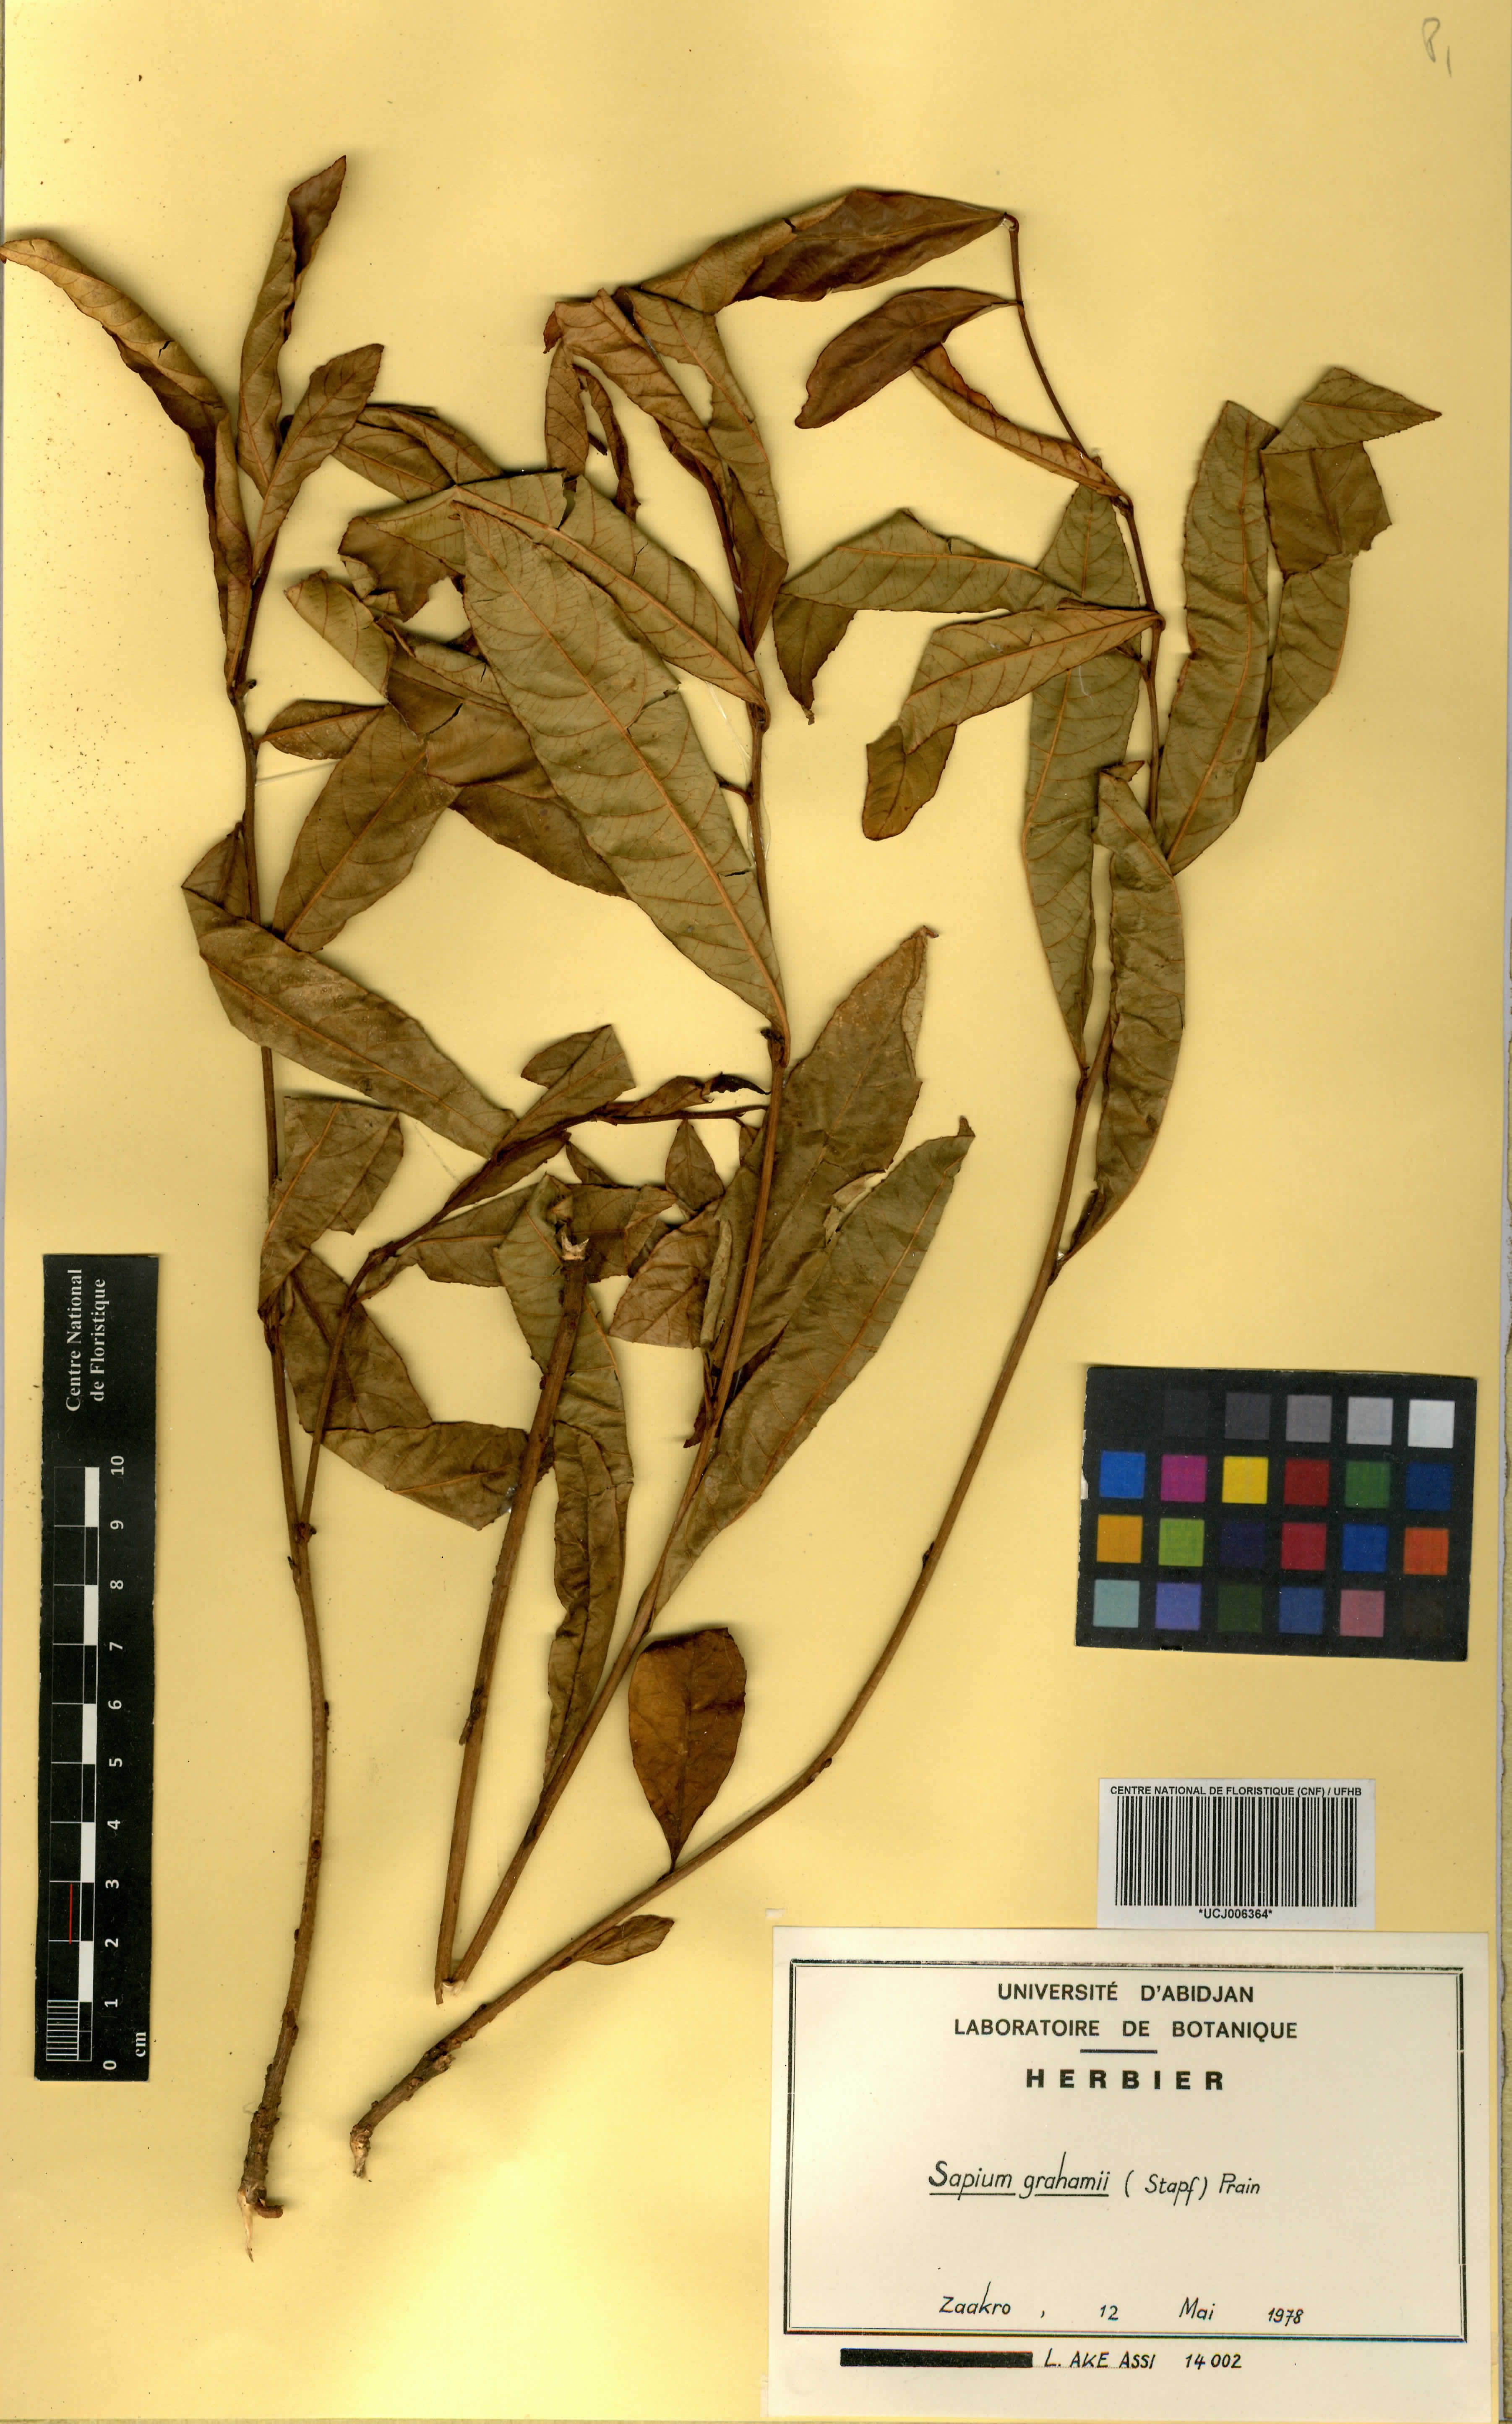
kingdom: Plantae
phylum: Tracheophyta
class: Magnoliopsida
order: Malpighiales
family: Euphorbiaceae
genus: Excoecaria
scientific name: Excoecaria grahamii
